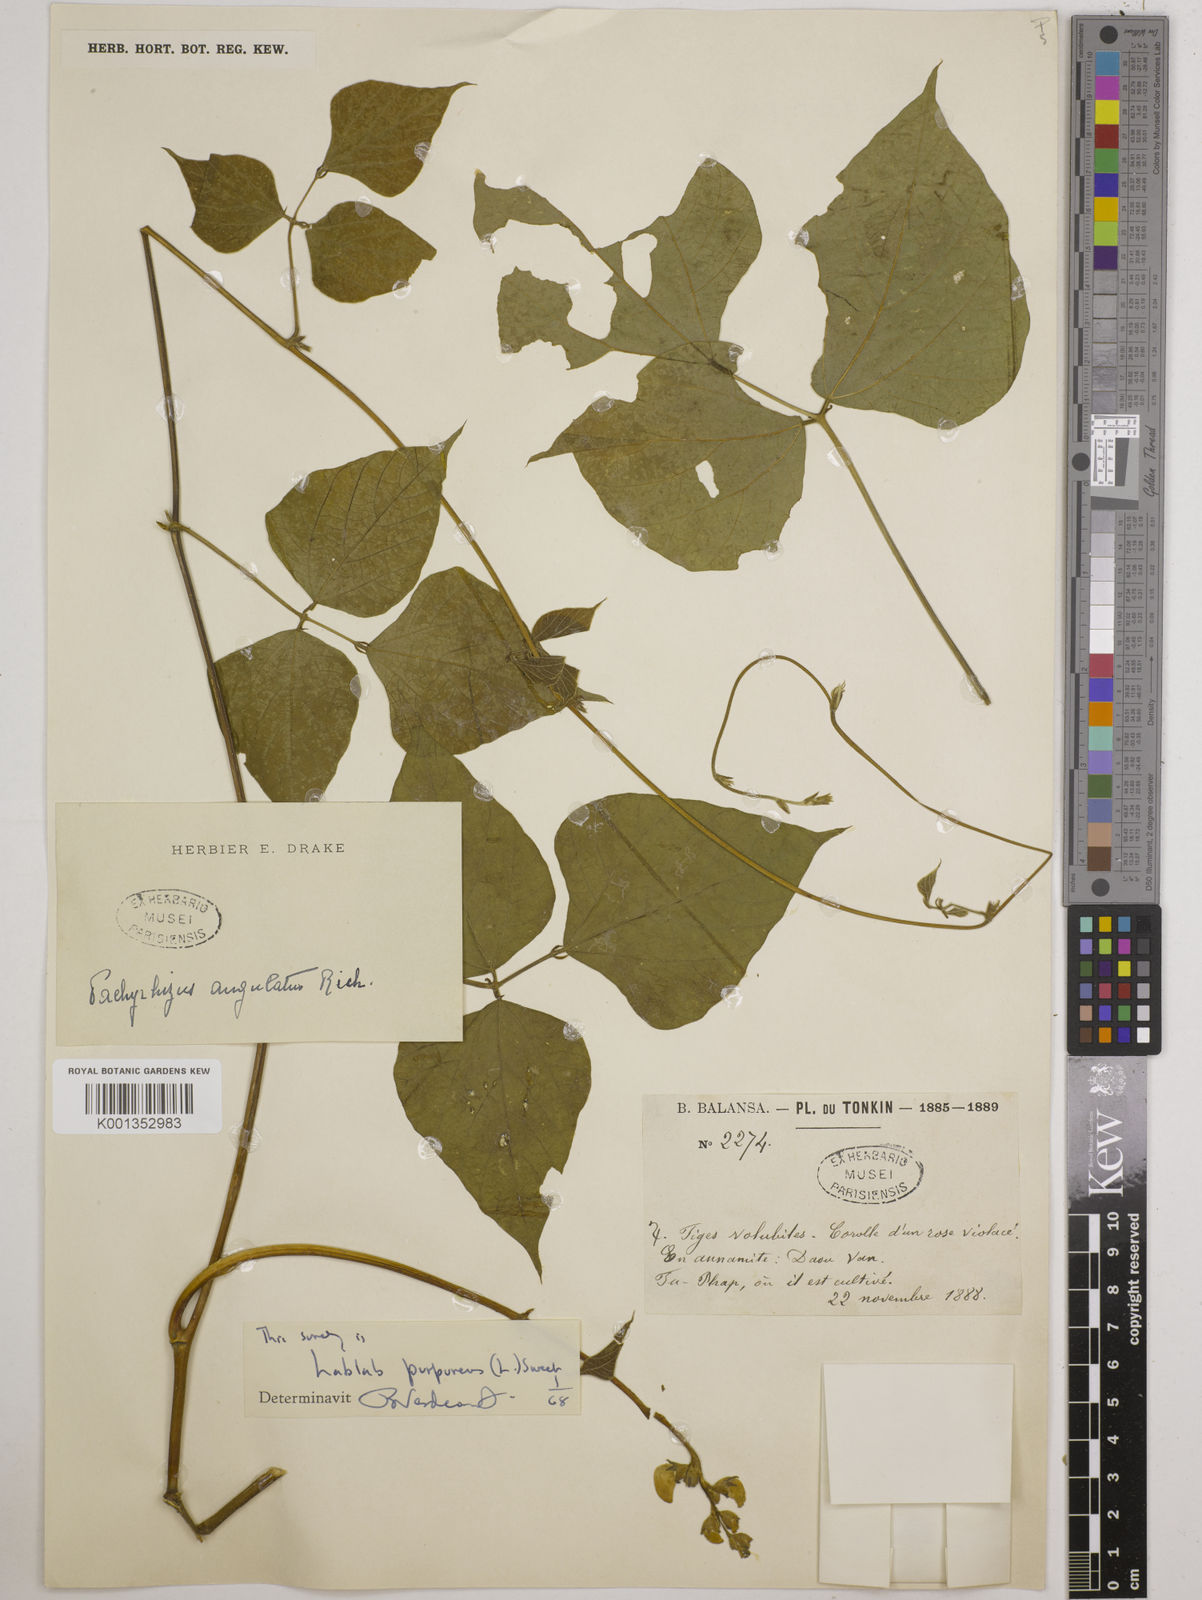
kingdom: Plantae
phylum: Tracheophyta
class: Magnoliopsida
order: Fabales
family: Fabaceae
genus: Lablab
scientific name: Lablab purpureus
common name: Lablab-bean
